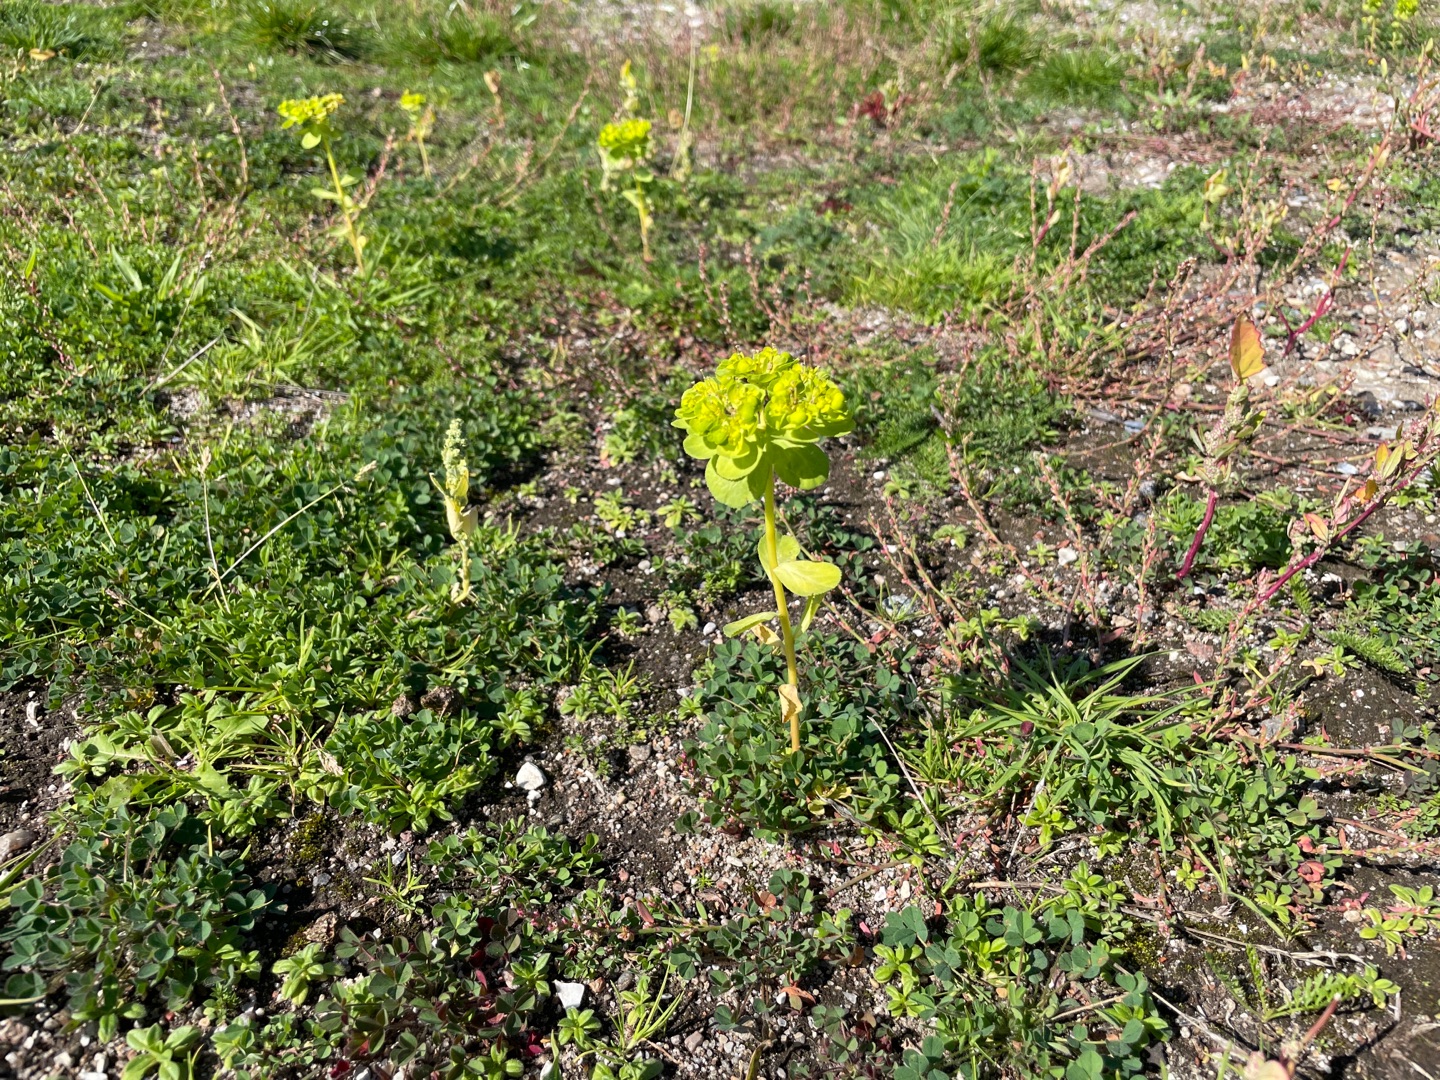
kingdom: Plantae
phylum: Tracheophyta
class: Magnoliopsida
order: Malpighiales
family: Euphorbiaceae
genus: Euphorbia
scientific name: Euphorbia helioscopia
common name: Skærm-vortemælk
